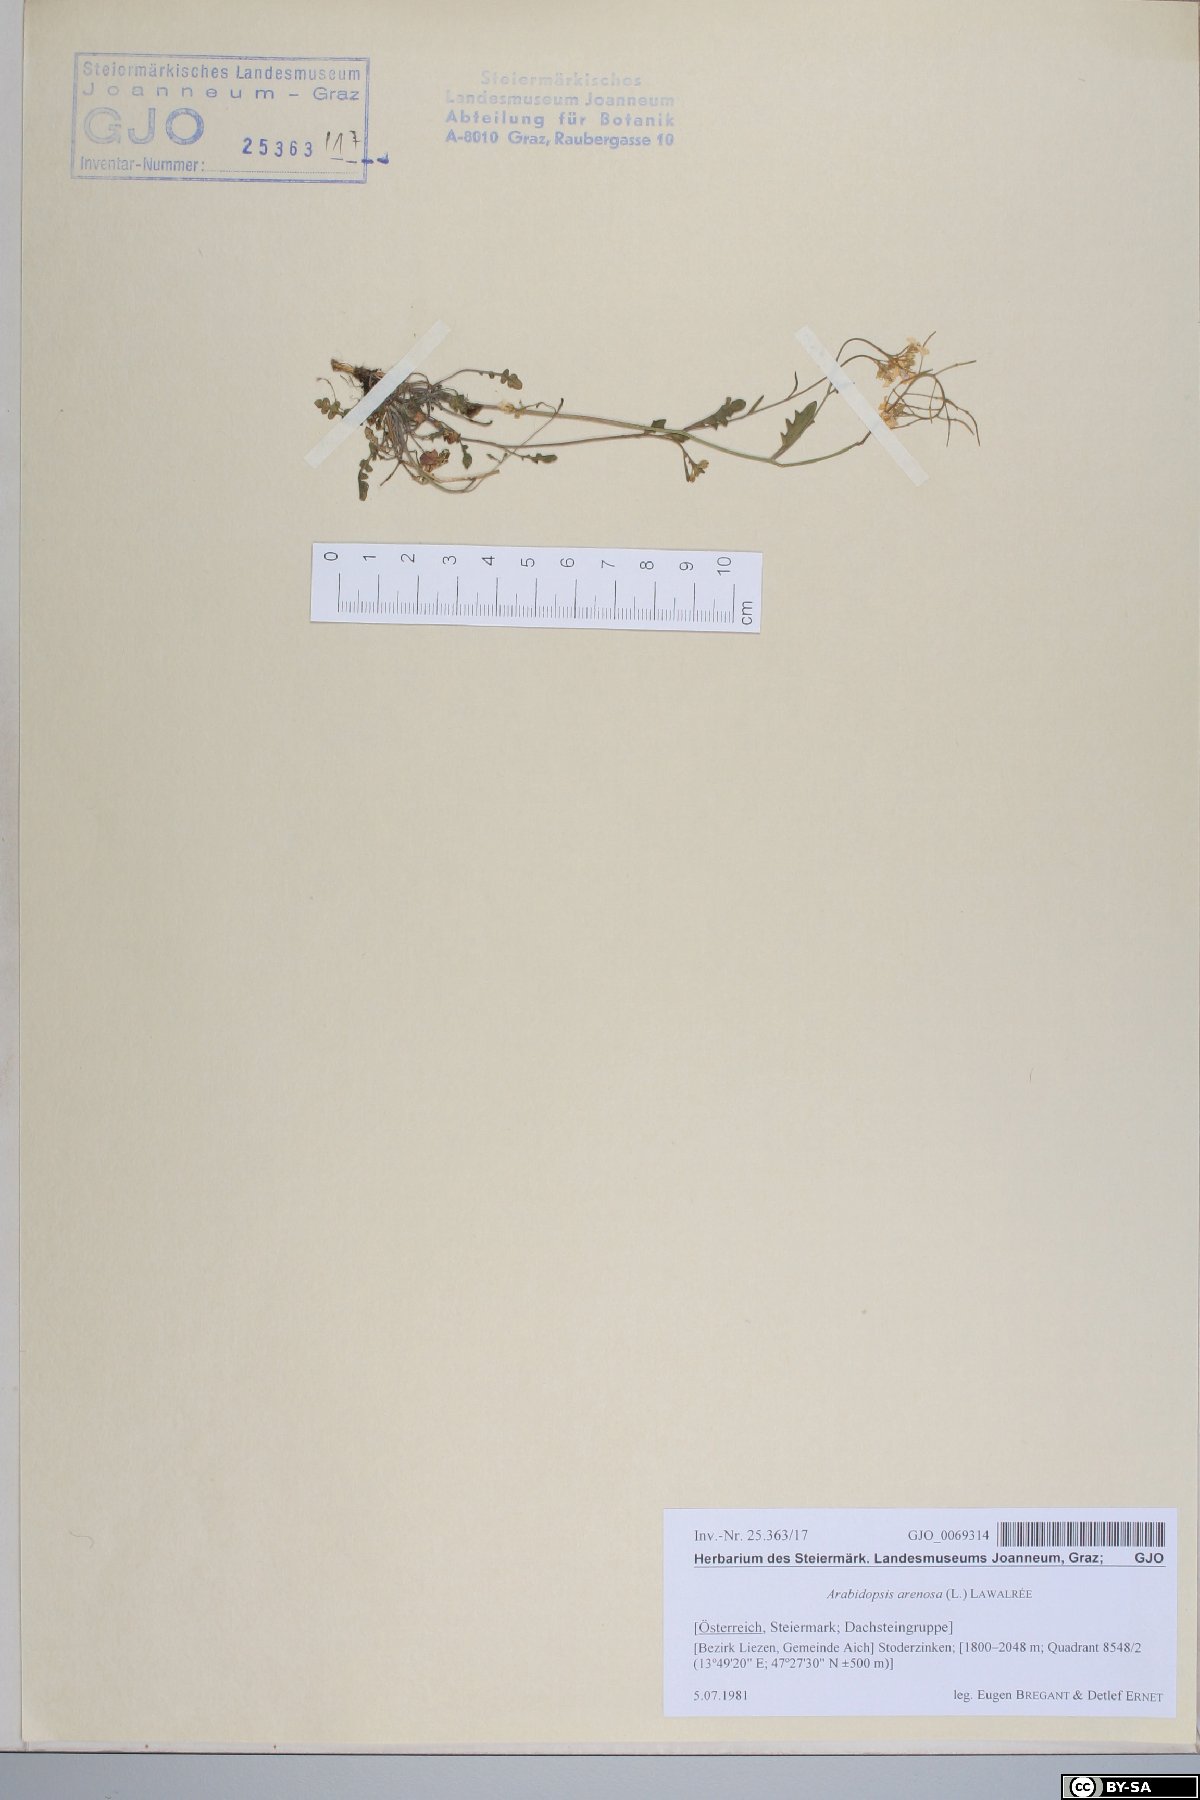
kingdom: Plantae
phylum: Tracheophyta
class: Magnoliopsida
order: Brassicales
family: Brassicaceae
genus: Arabidopsis
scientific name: Arabidopsis arenosa
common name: Sand rock-cress
